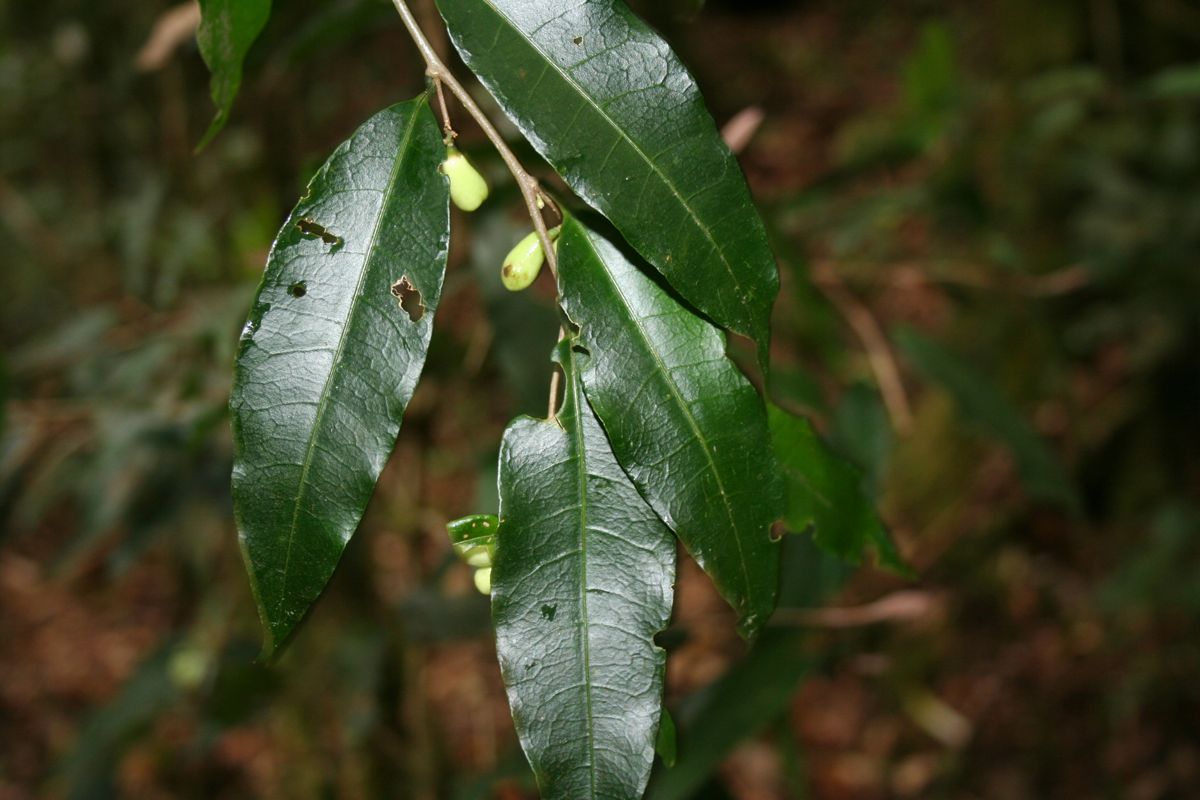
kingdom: Plantae
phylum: Tracheophyta
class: Magnoliopsida
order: Solanales
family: Solanaceae
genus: Cestrum
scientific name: Cestrum
